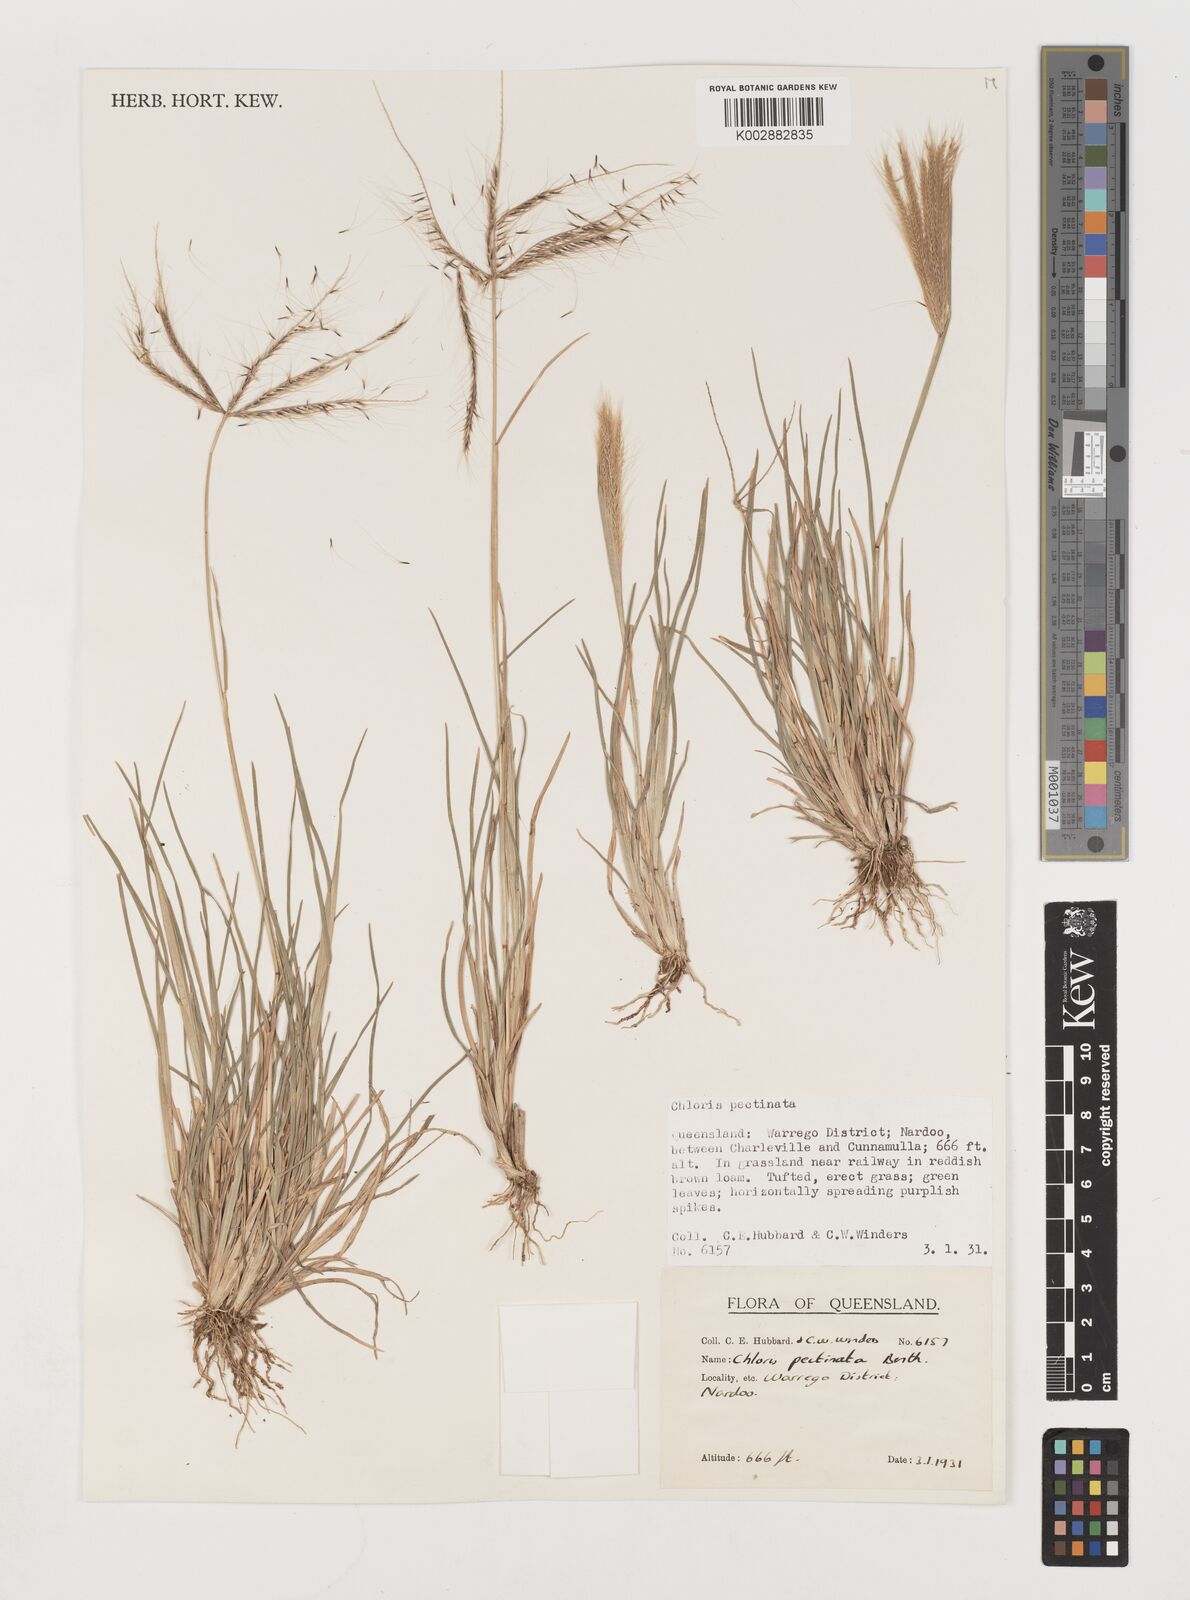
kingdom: Plantae
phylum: Tracheophyta
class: Liliopsida
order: Poales
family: Poaceae
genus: Chloris
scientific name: Chloris pectinata
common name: Comb windmill grass
